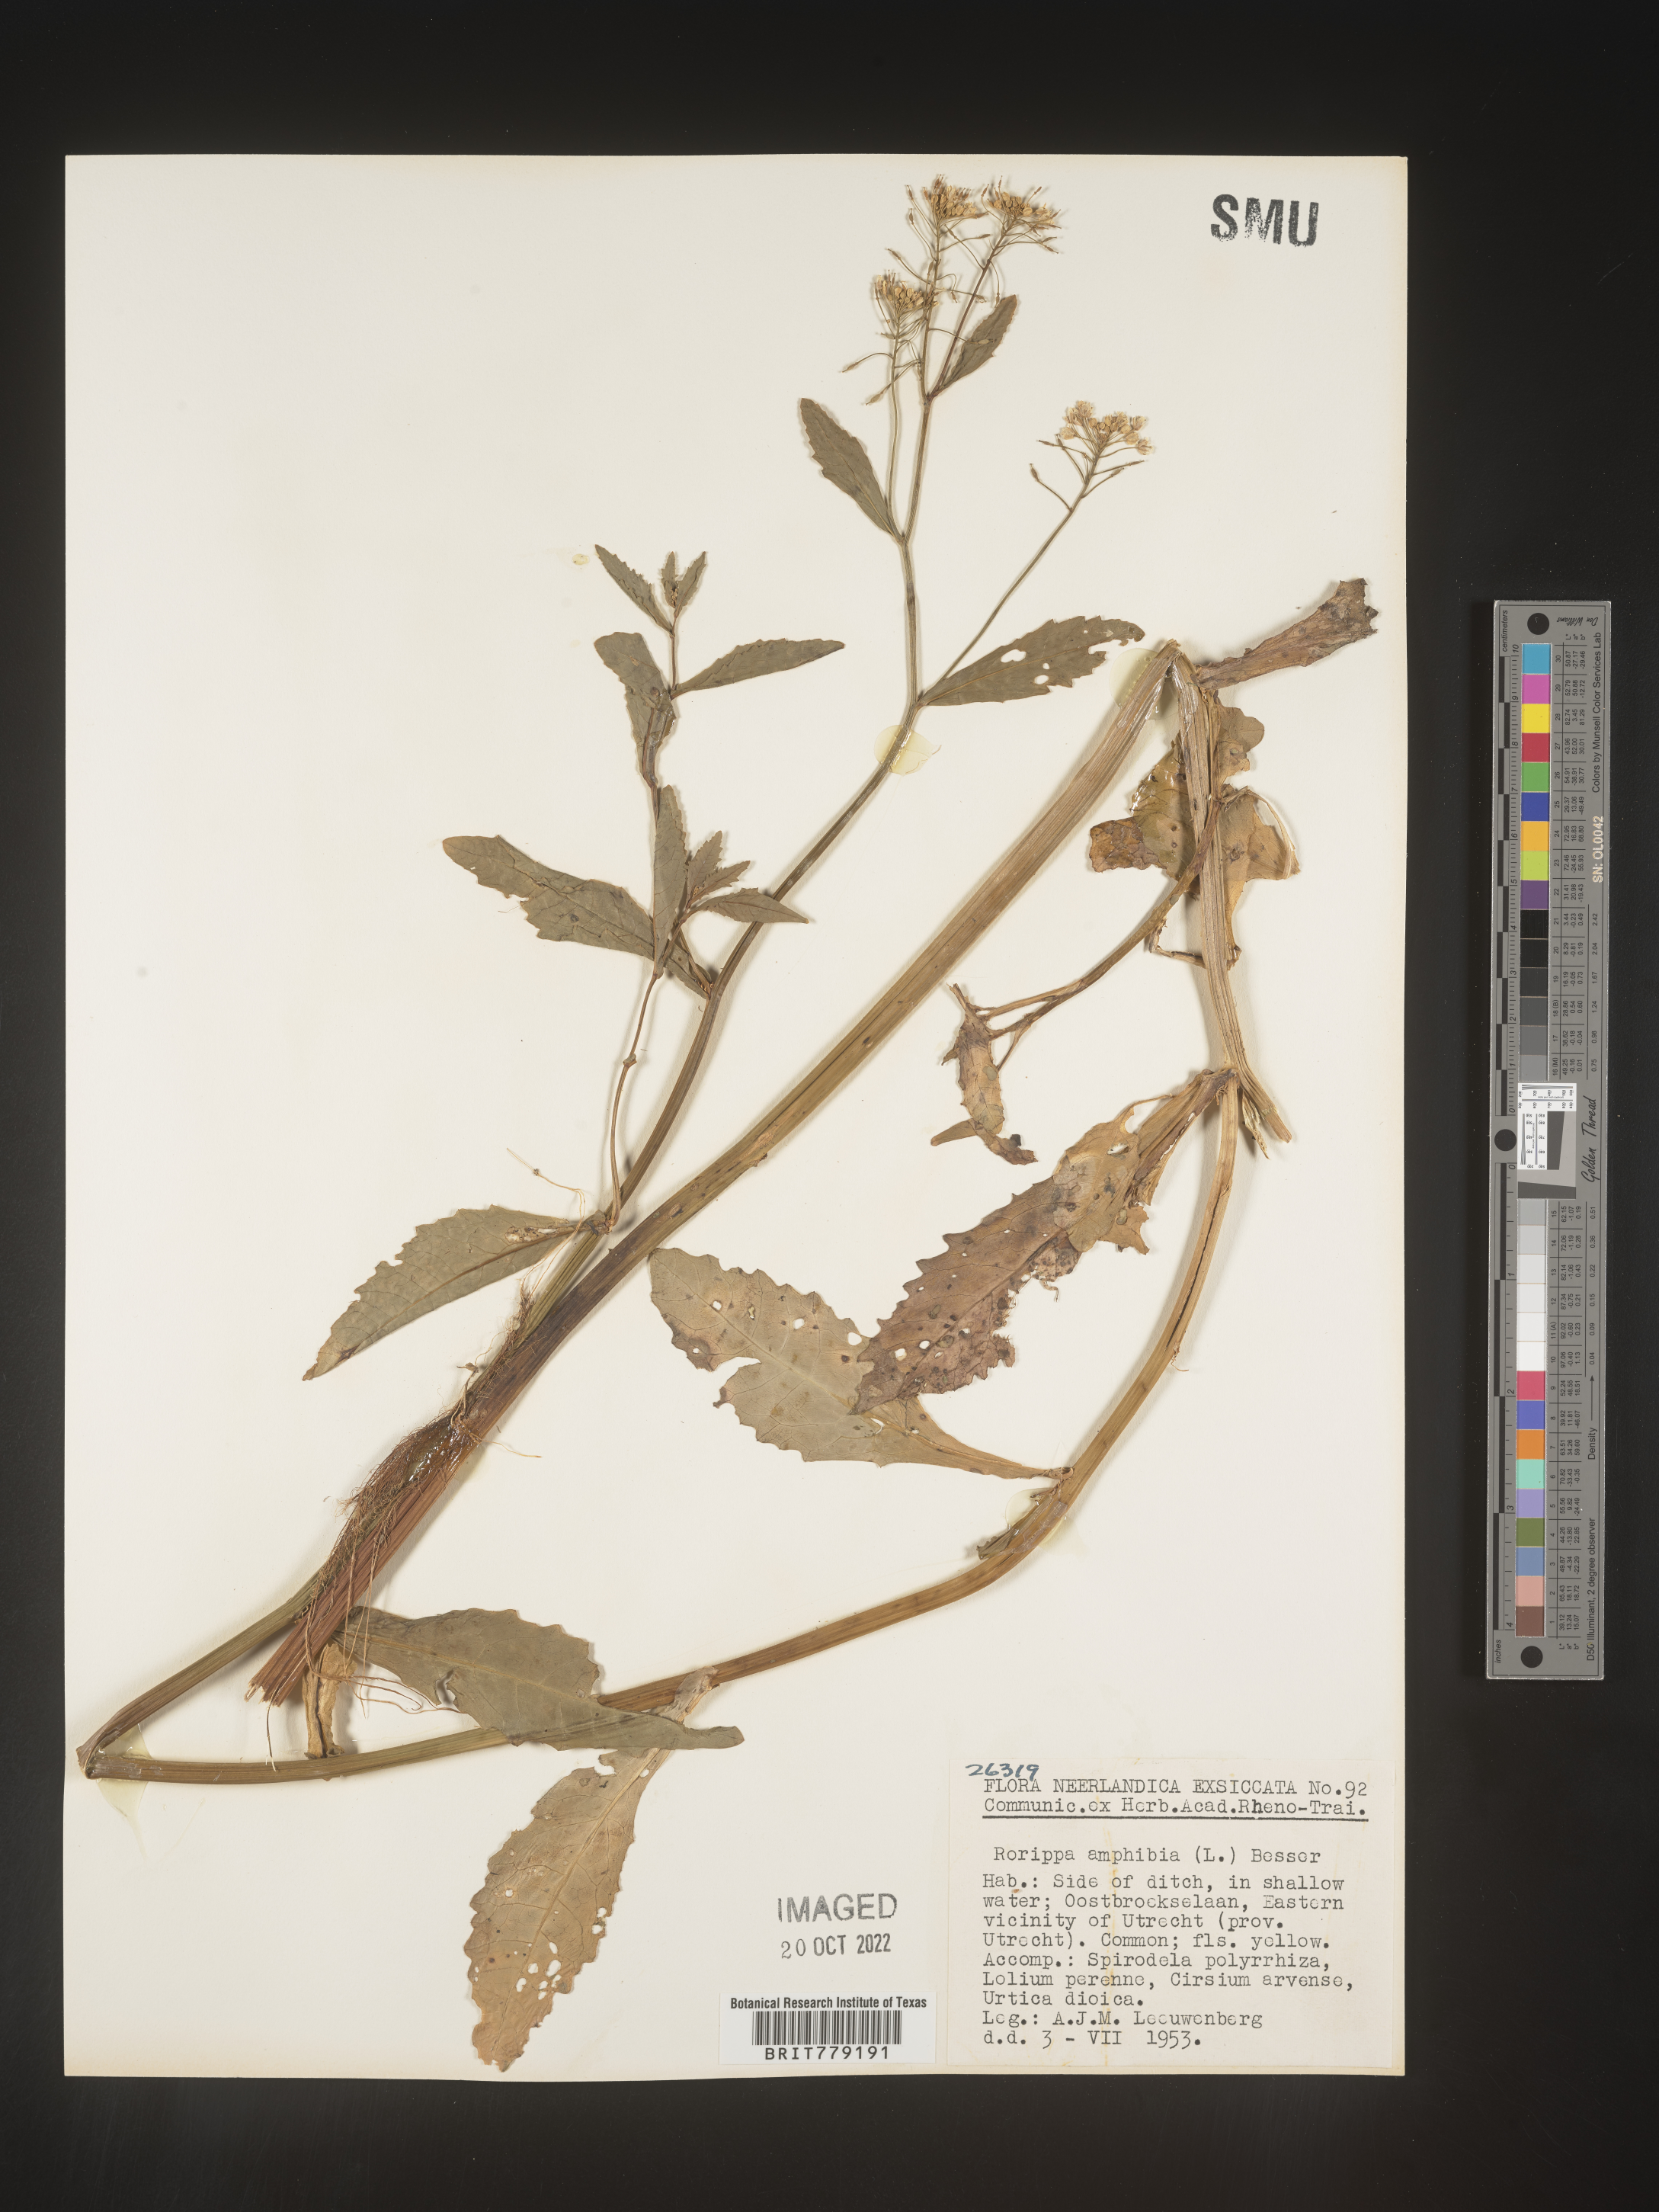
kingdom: Plantae
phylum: Tracheophyta
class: Magnoliopsida
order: Brassicales
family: Brassicaceae
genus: Rorippa
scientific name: Rorippa
